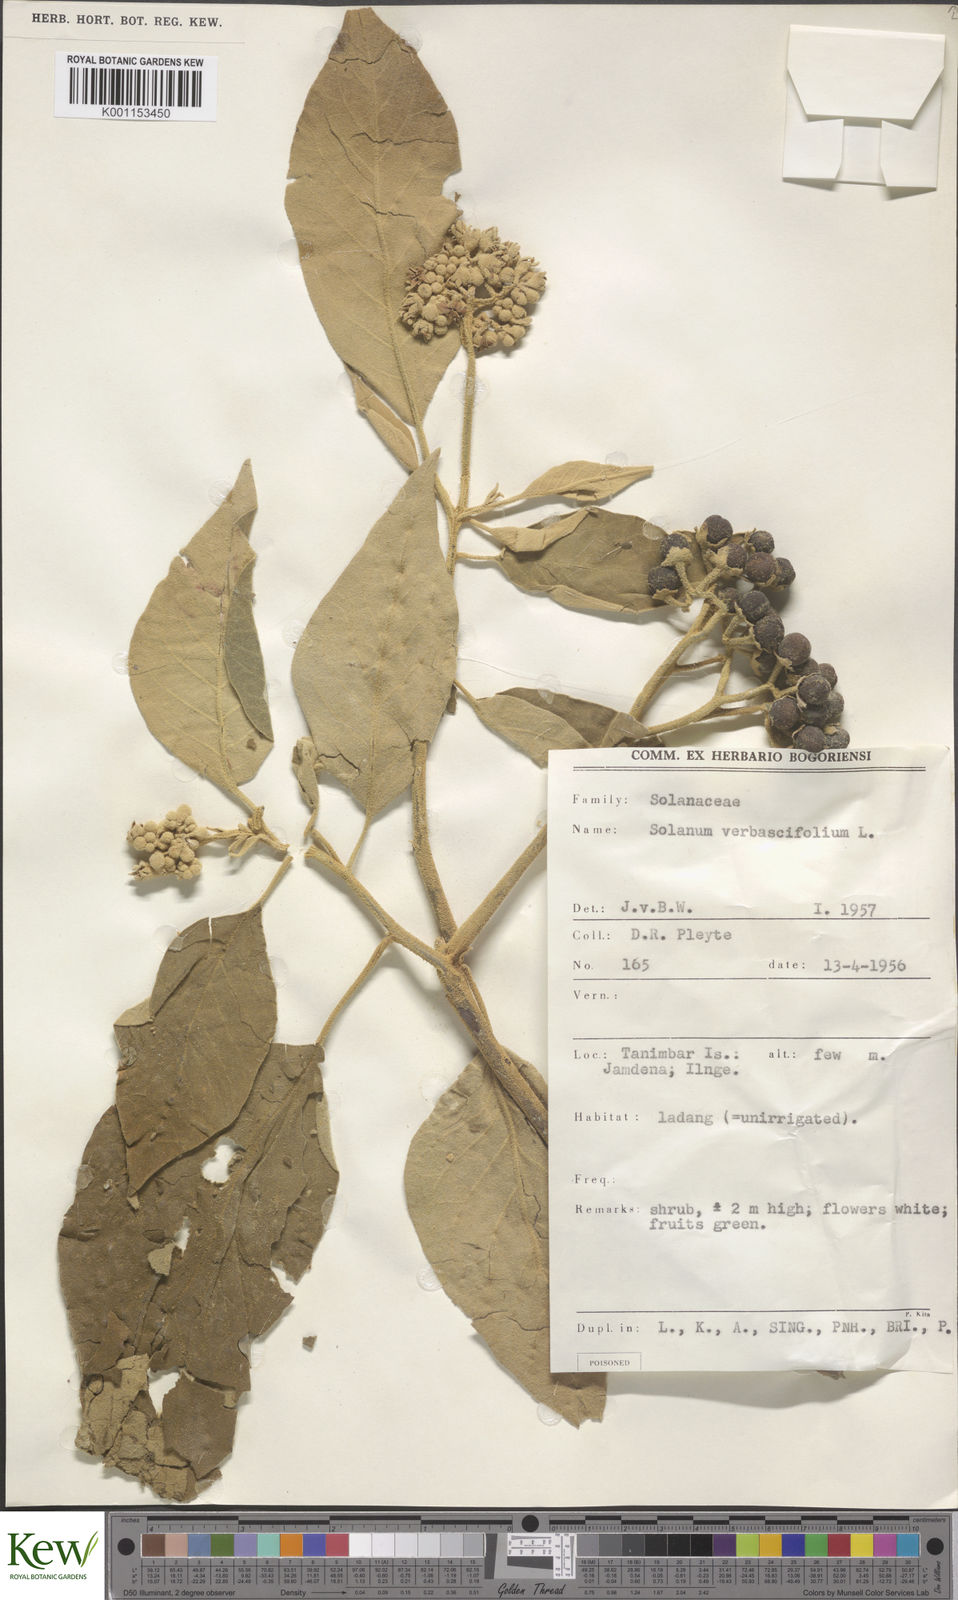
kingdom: Plantae
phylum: Tracheophyta
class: Magnoliopsida
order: Solanales
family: Solanaceae
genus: Solanum
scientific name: Solanum donianum
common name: Mullein nightshade
